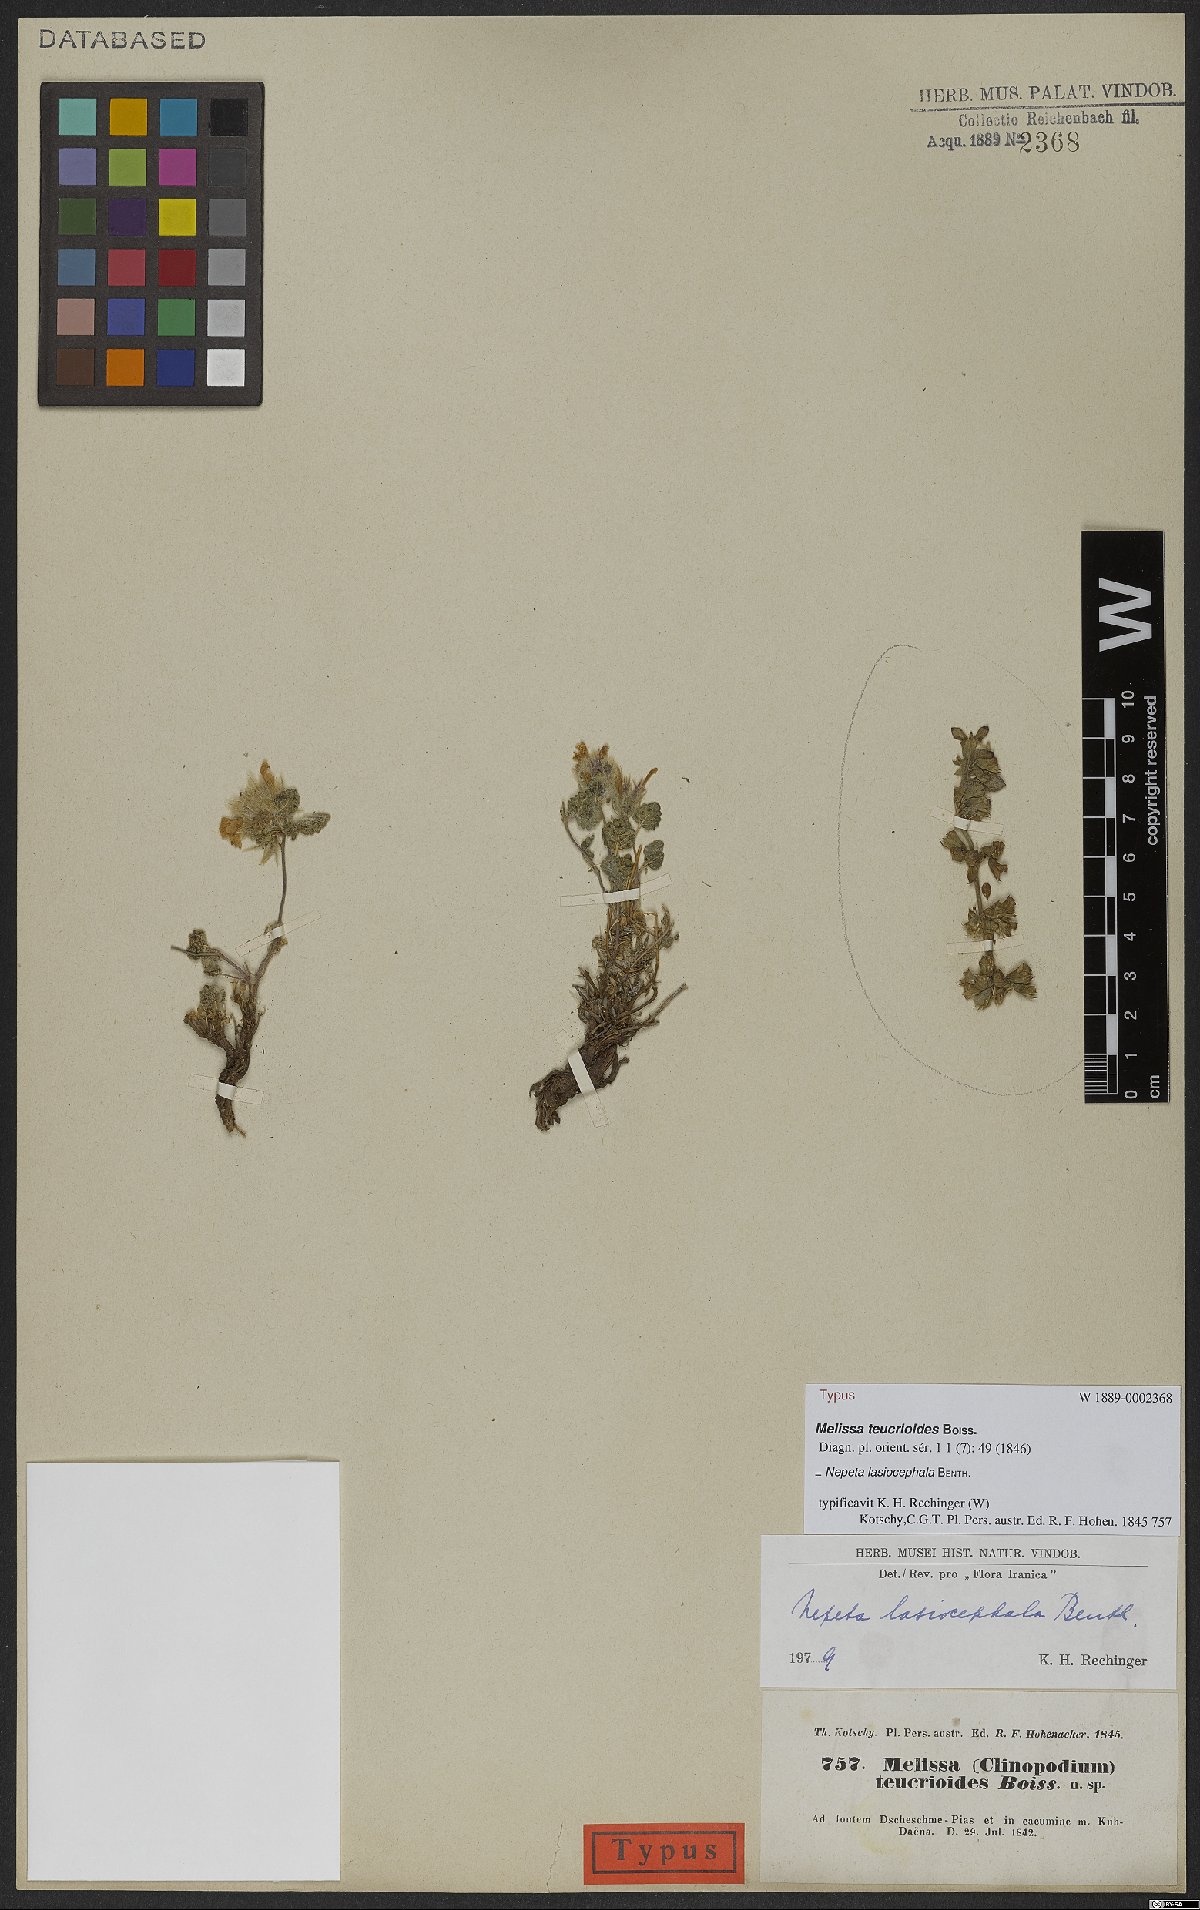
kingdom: Plantae
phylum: Tracheophyta
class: Magnoliopsida
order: Lamiales
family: Lamiaceae
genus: Nepeta
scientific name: Nepeta lasiocephala
